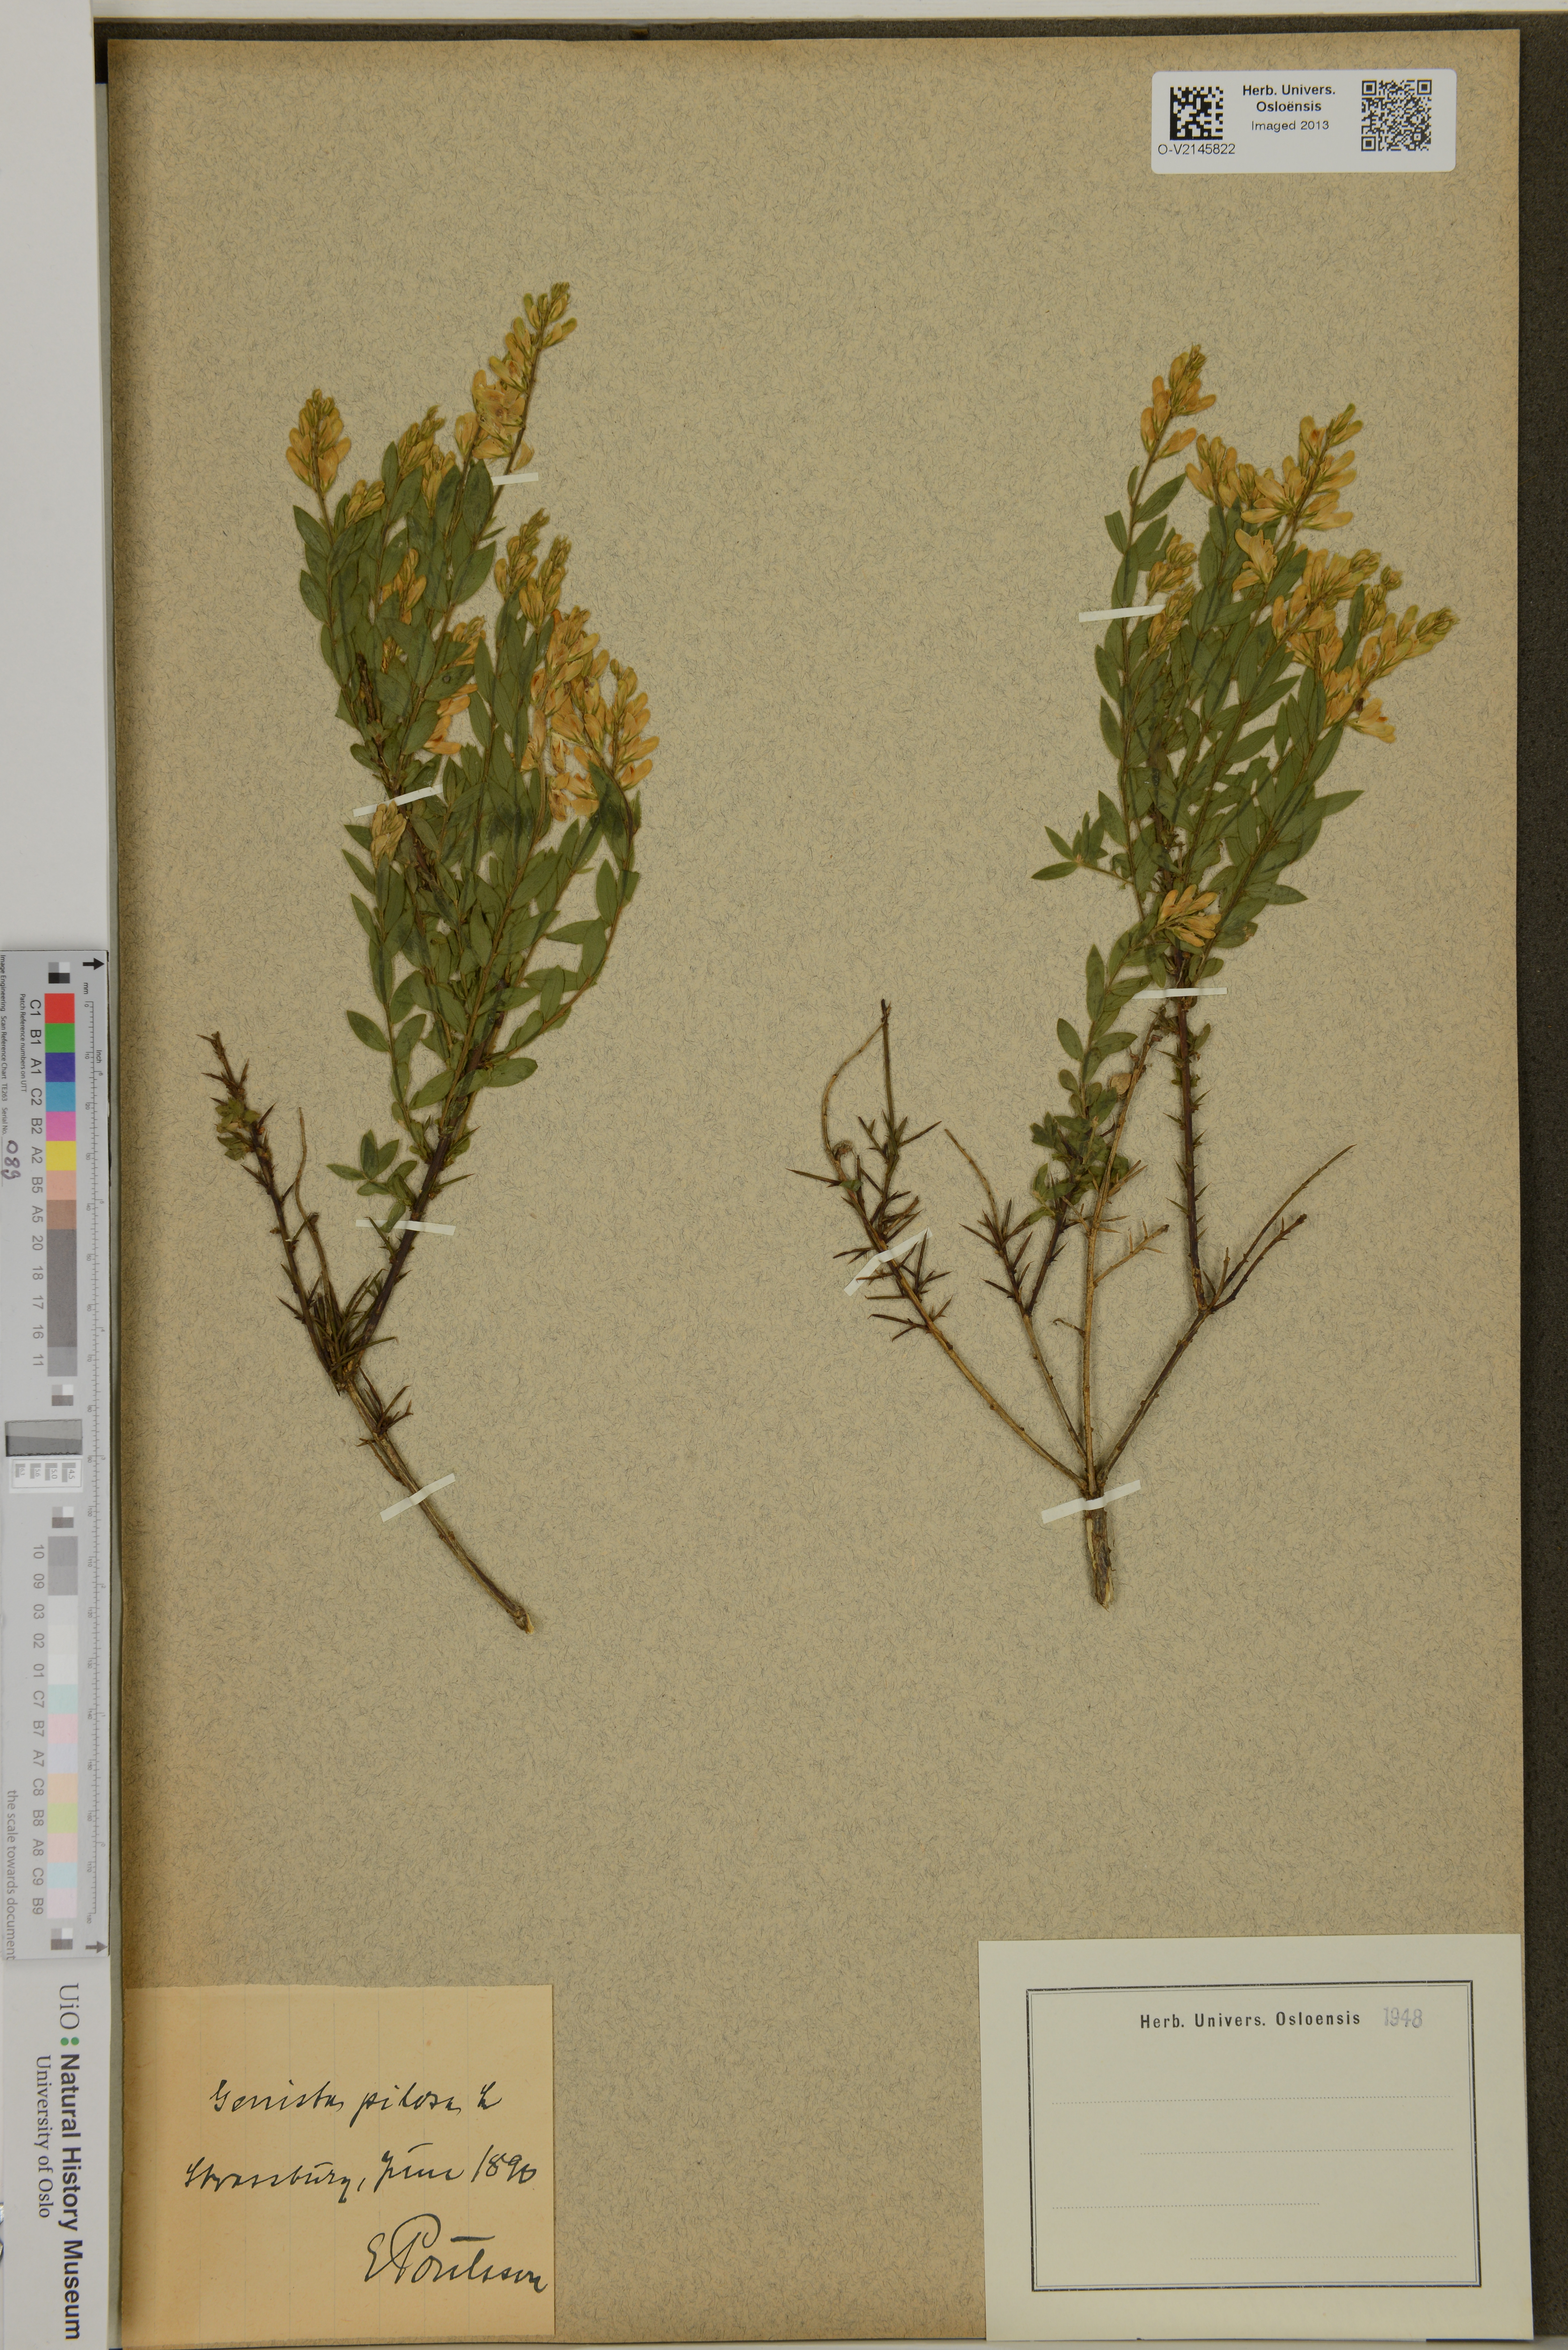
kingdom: Plantae
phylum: Tracheophyta
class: Magnoliopsida
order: Fabales
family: Fabaceae
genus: Genista
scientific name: Genista pilosa
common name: Hairy greenweed
